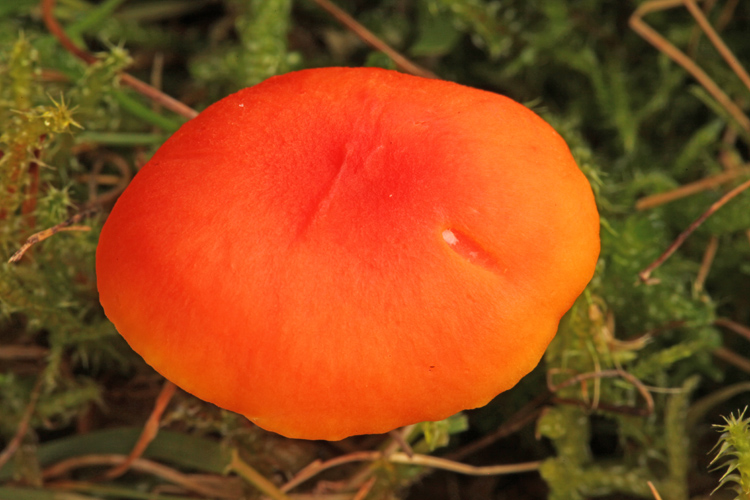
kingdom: Fungi
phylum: Basidiomycota
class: Agaricomycetes
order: Agaricales
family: Hygrophoraceae
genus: Hygrocybe
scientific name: Hygrocybe miniata
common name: mønje-vokshat
